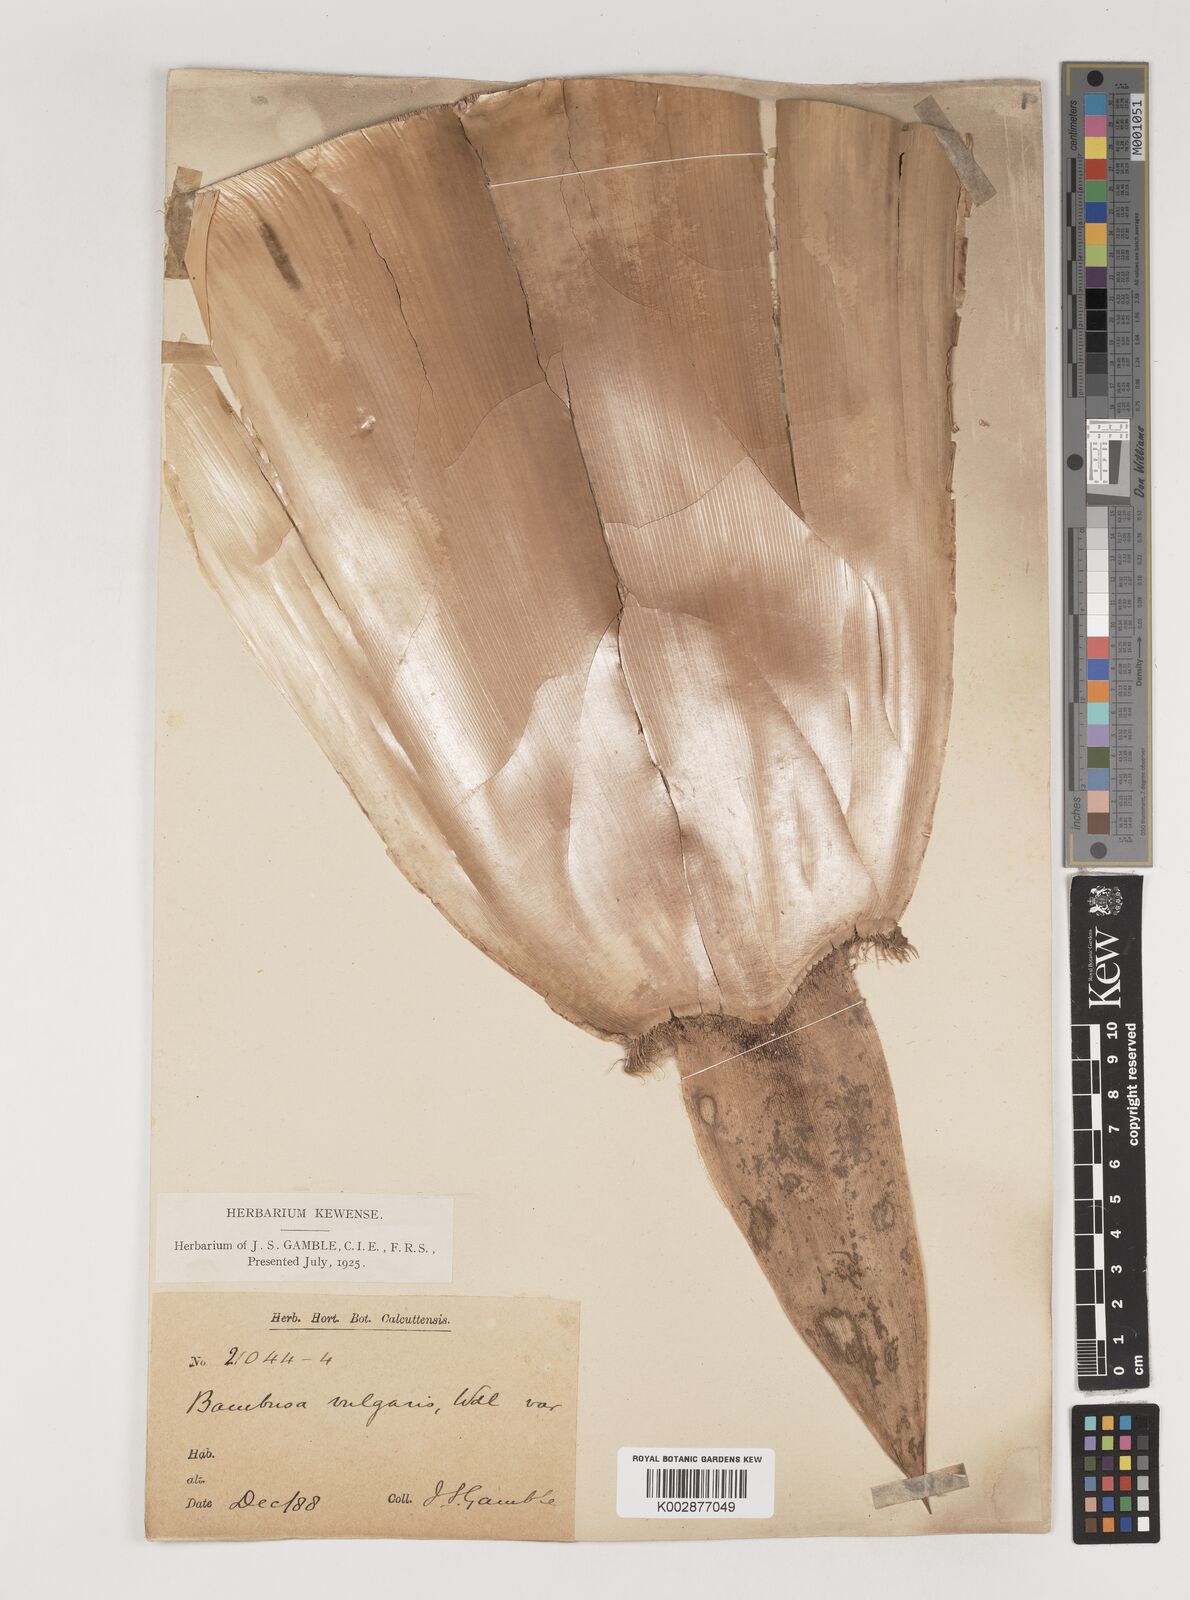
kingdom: Plantae
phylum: Tracheophyta
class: Liliopsida
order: Poales
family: Poaceae
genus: Bambusa
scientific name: Bambusa vulgaris
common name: Common bamboo
